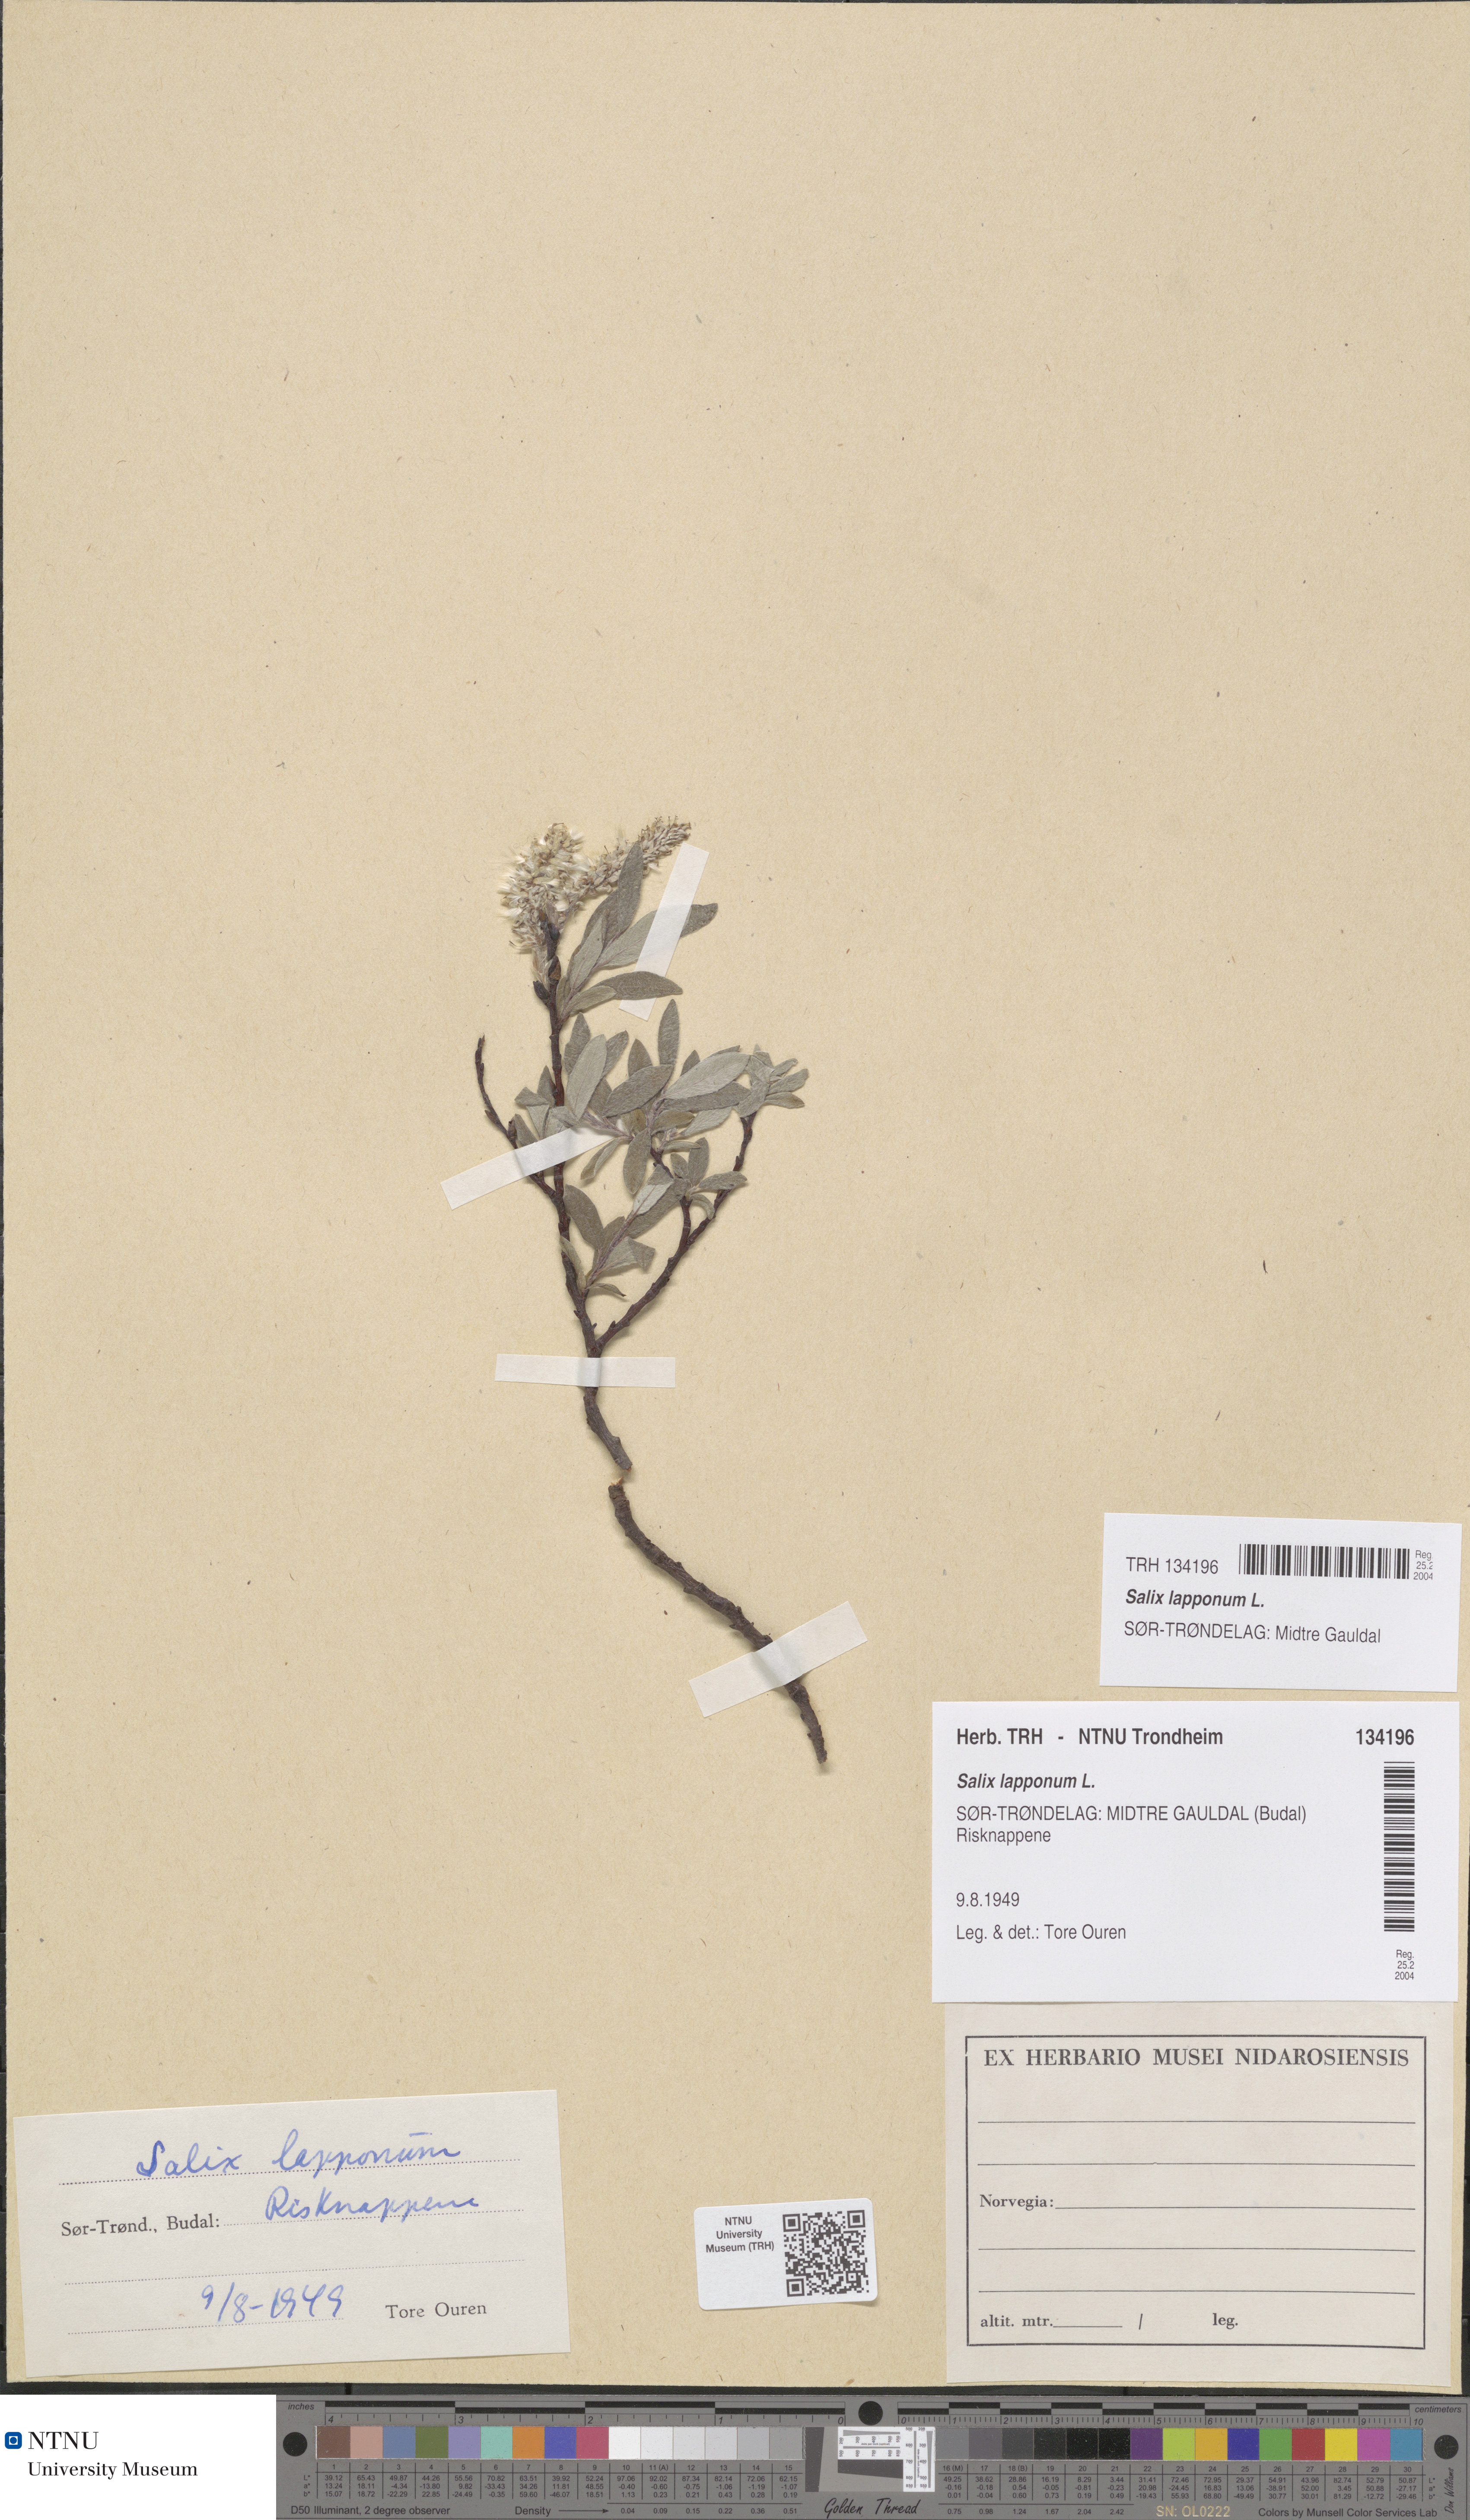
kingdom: Plantae
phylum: Tracheophyta
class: Magnoliopsida
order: Malpighiales
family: Salicaceae
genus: Salix
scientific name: Salix lapponum
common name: Downy willow
